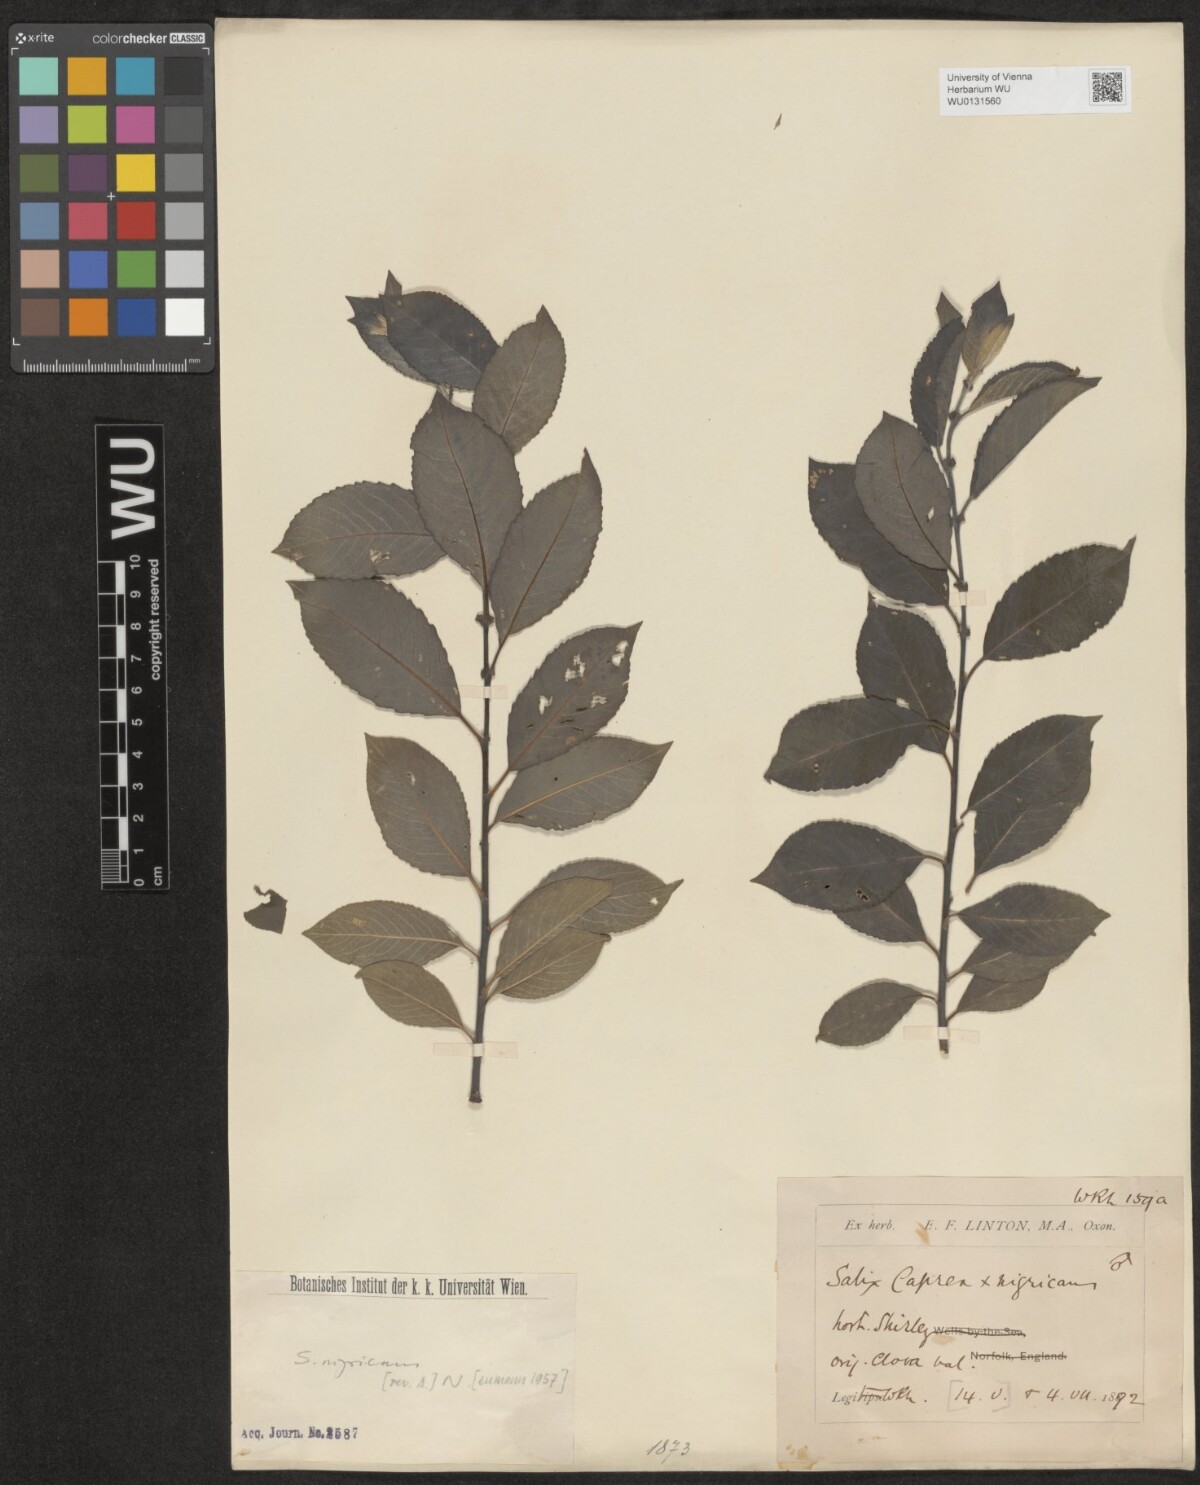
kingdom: Plantae
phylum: Tracheophyta
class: Magnoliopsida
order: Malpighiales
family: Salicaceae
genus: Salix
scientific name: Salix myrsinifolia
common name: Dark-leaved willow
